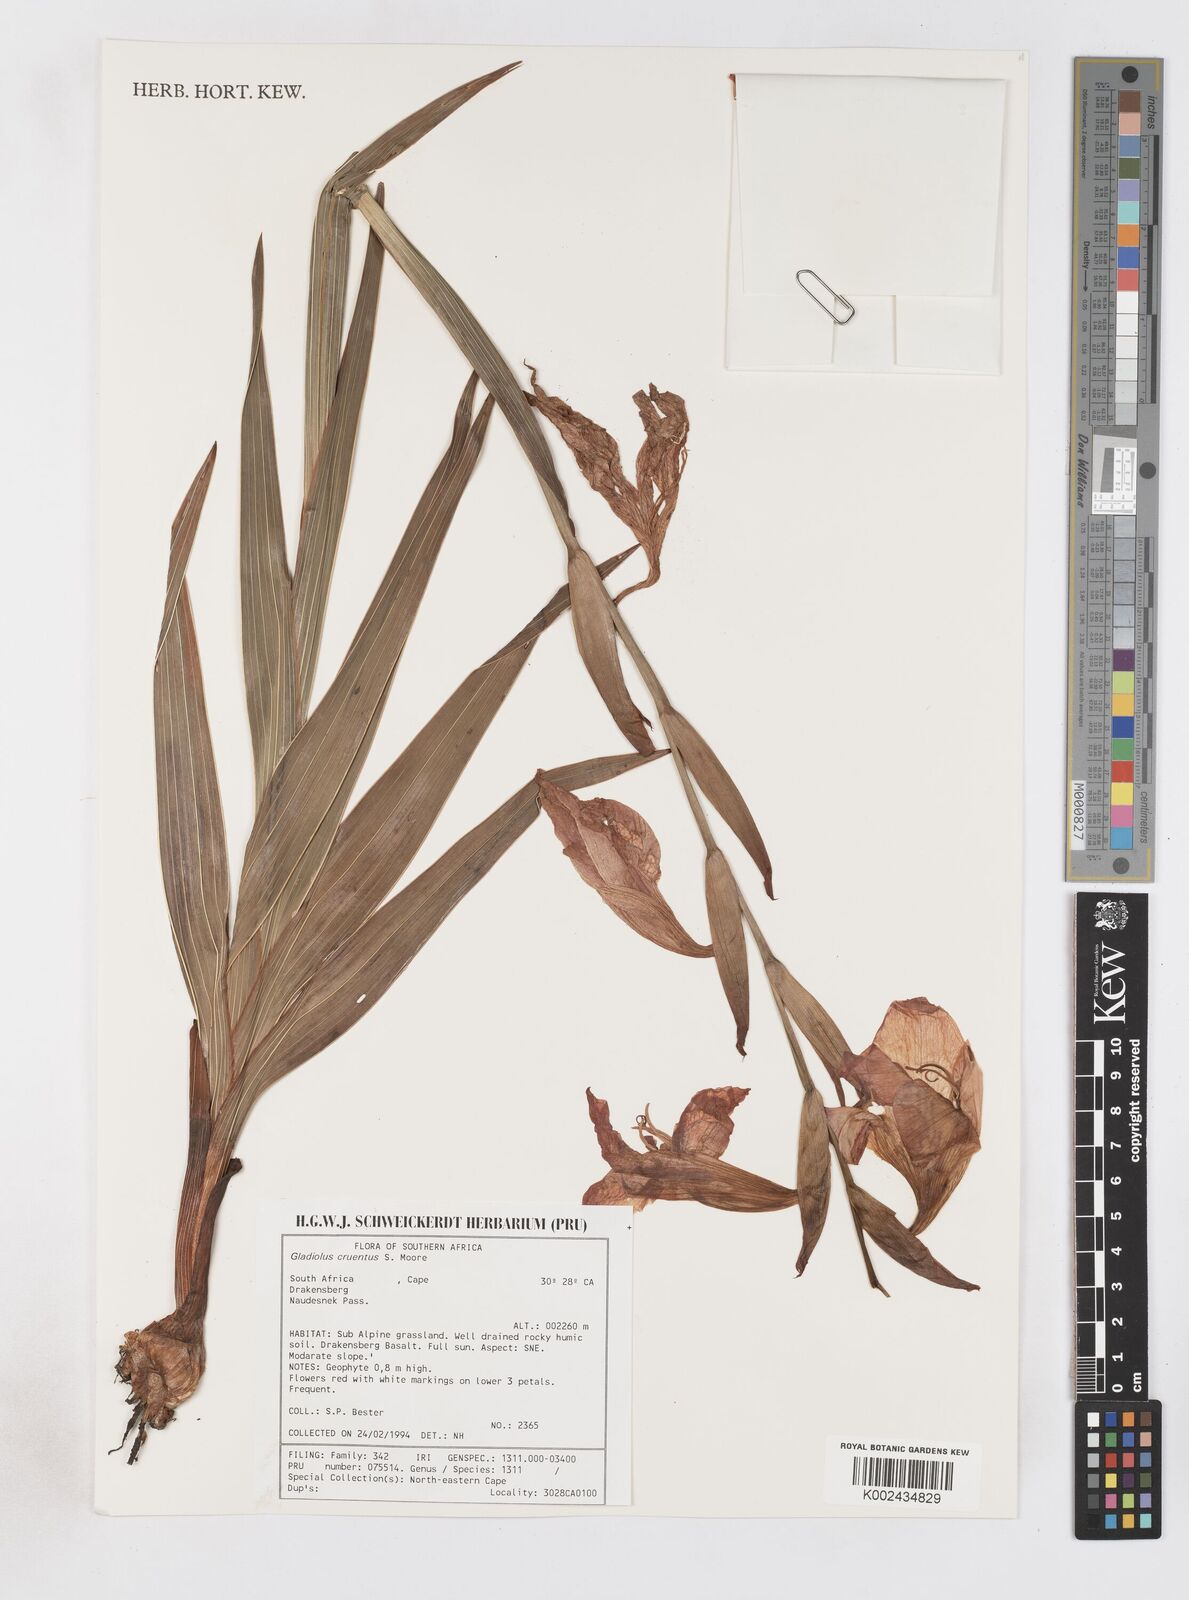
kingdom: Plantae
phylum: Tracheophyta
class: Liliopsida
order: Asparagales
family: Iridaceae
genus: Gladiolus
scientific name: Gladiolus cruentus
